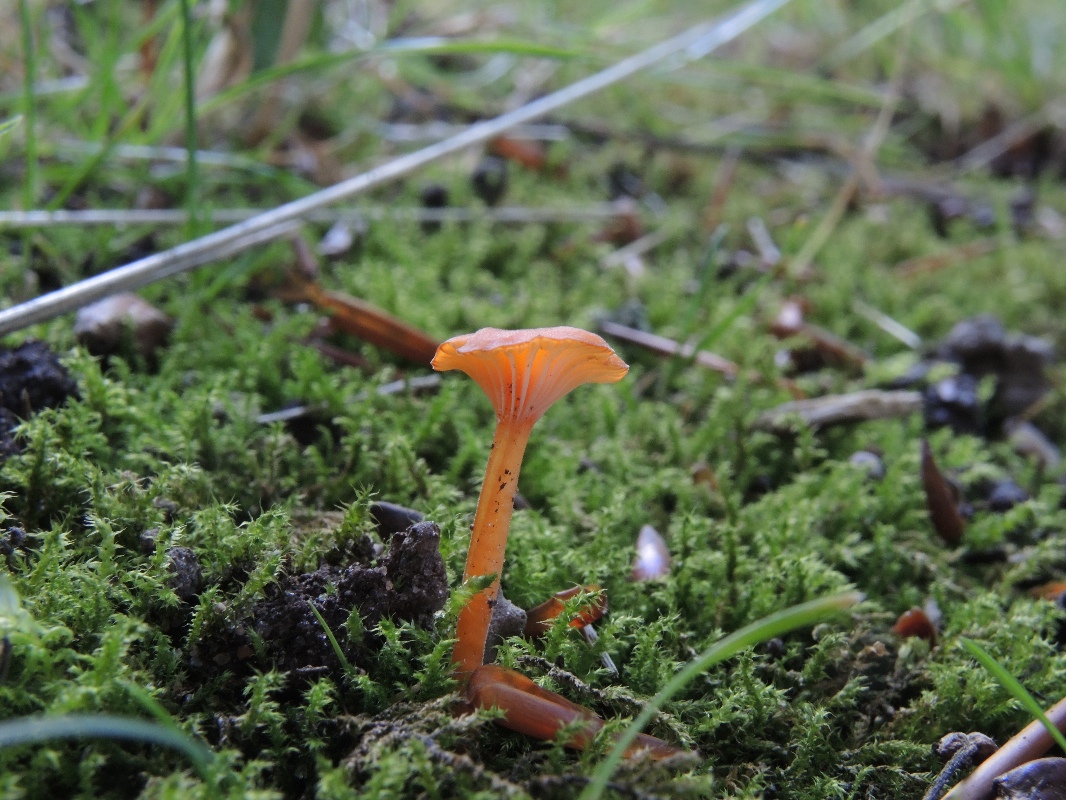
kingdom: Fungi
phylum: Basidiomycota
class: Agaricomycetes
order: Hymenochaetales
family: Rickenellaceae
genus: Rickenella
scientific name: Rickenella fibula
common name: orange mosnavlehat
